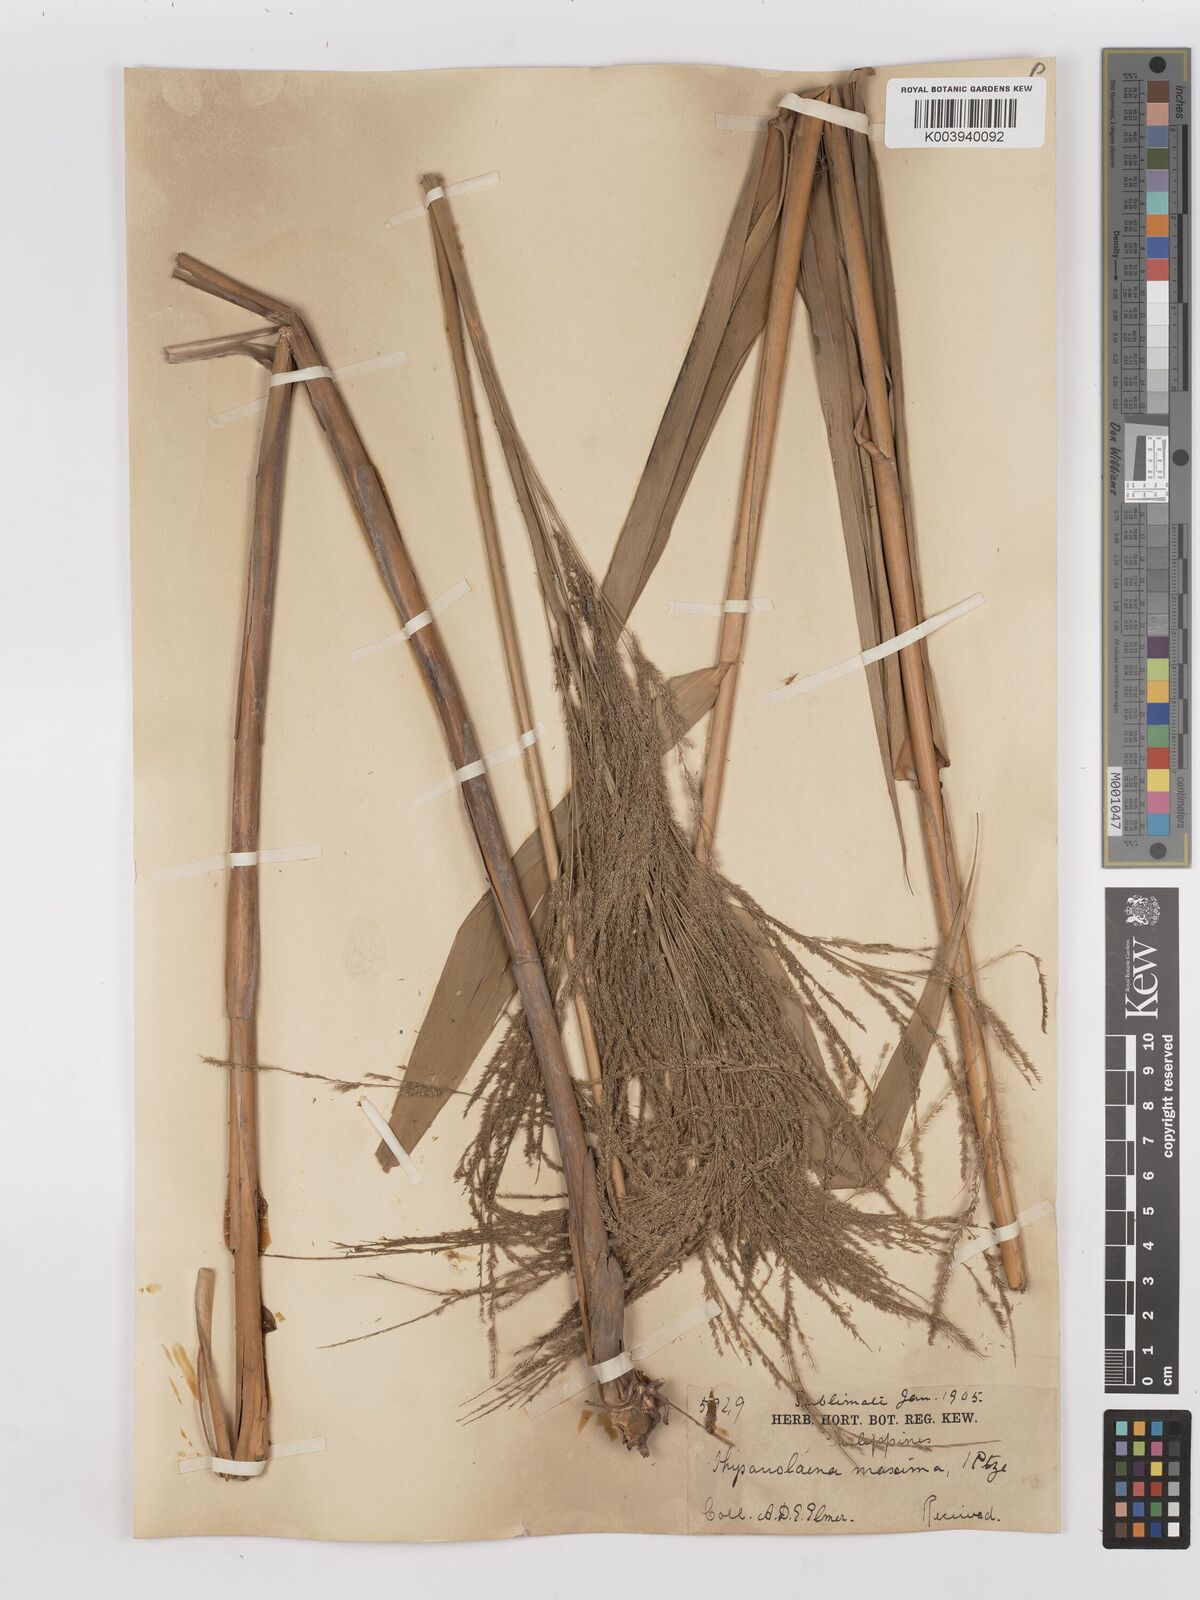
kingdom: Plantae
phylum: Tracheophyta
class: Liliopsida
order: Poales
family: Poaceae
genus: Thysanolaena
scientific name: Thysanolaena latifolia
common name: Tiger grass
